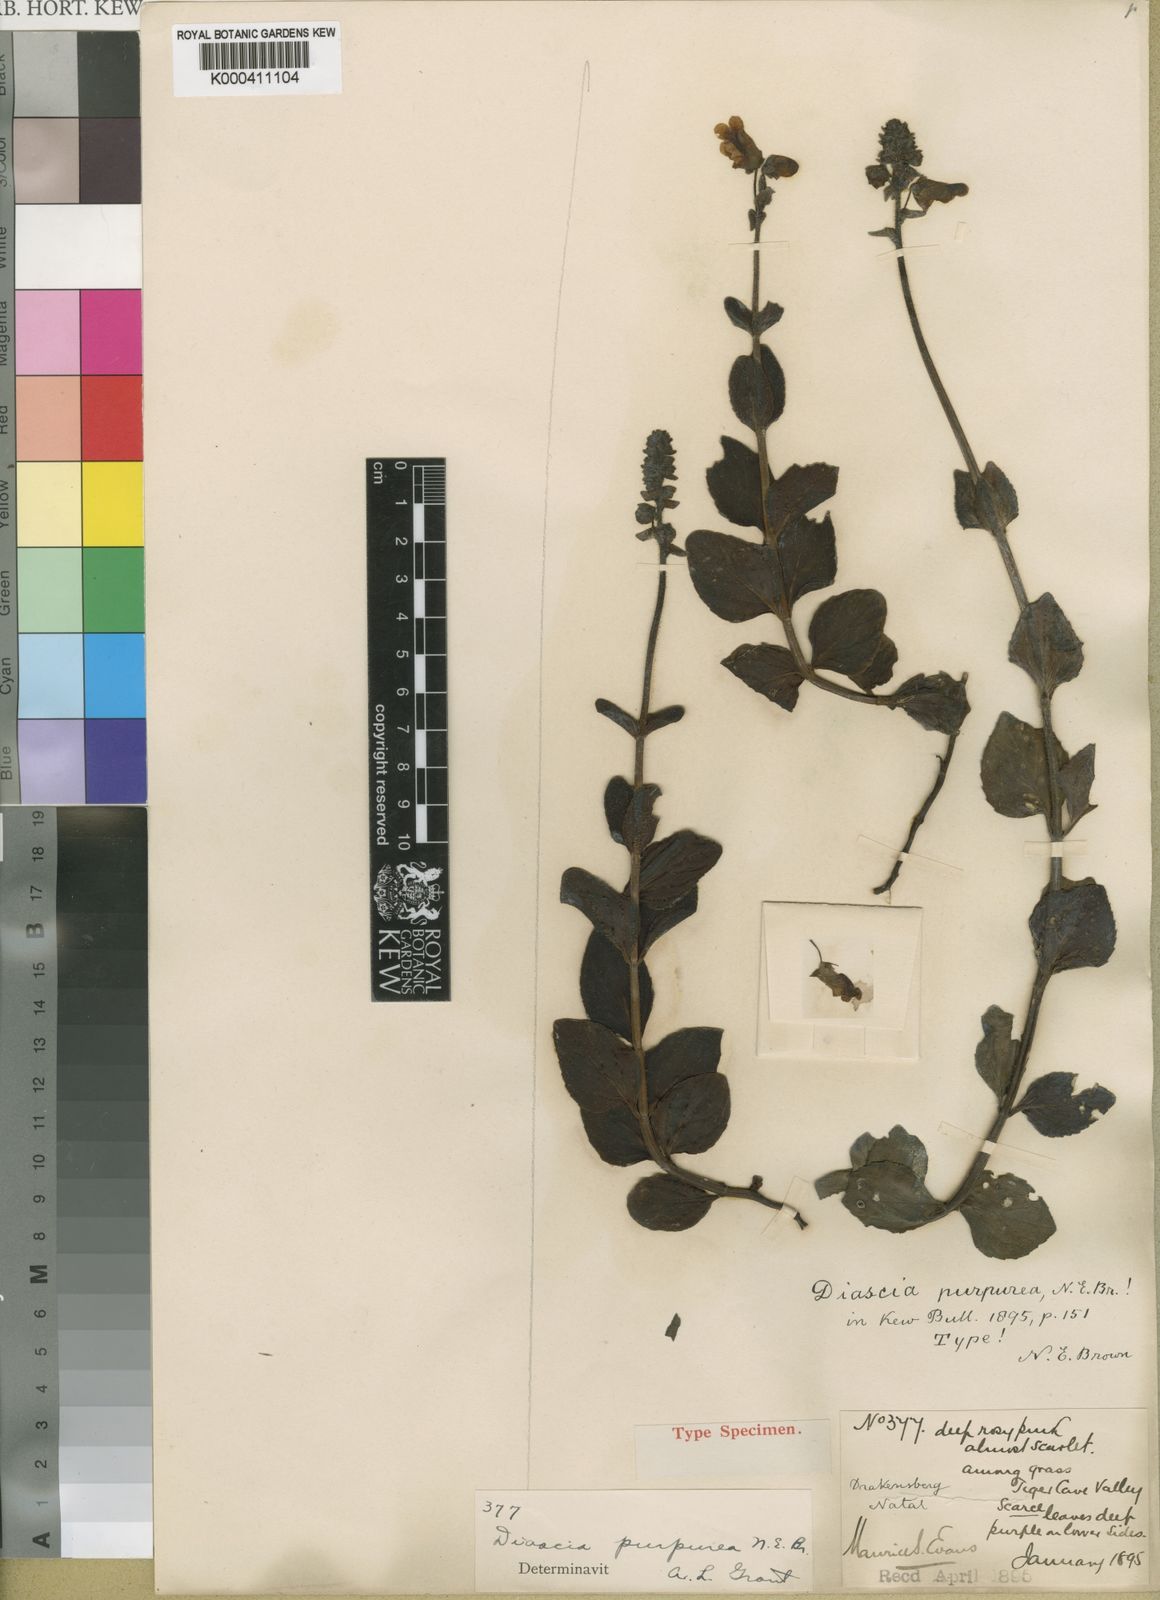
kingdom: Plantae
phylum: Tracheophyta
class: Magnoliopsida
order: Lamiales
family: Scrophulariaceae
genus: Diascia
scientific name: Diascia purpurea
